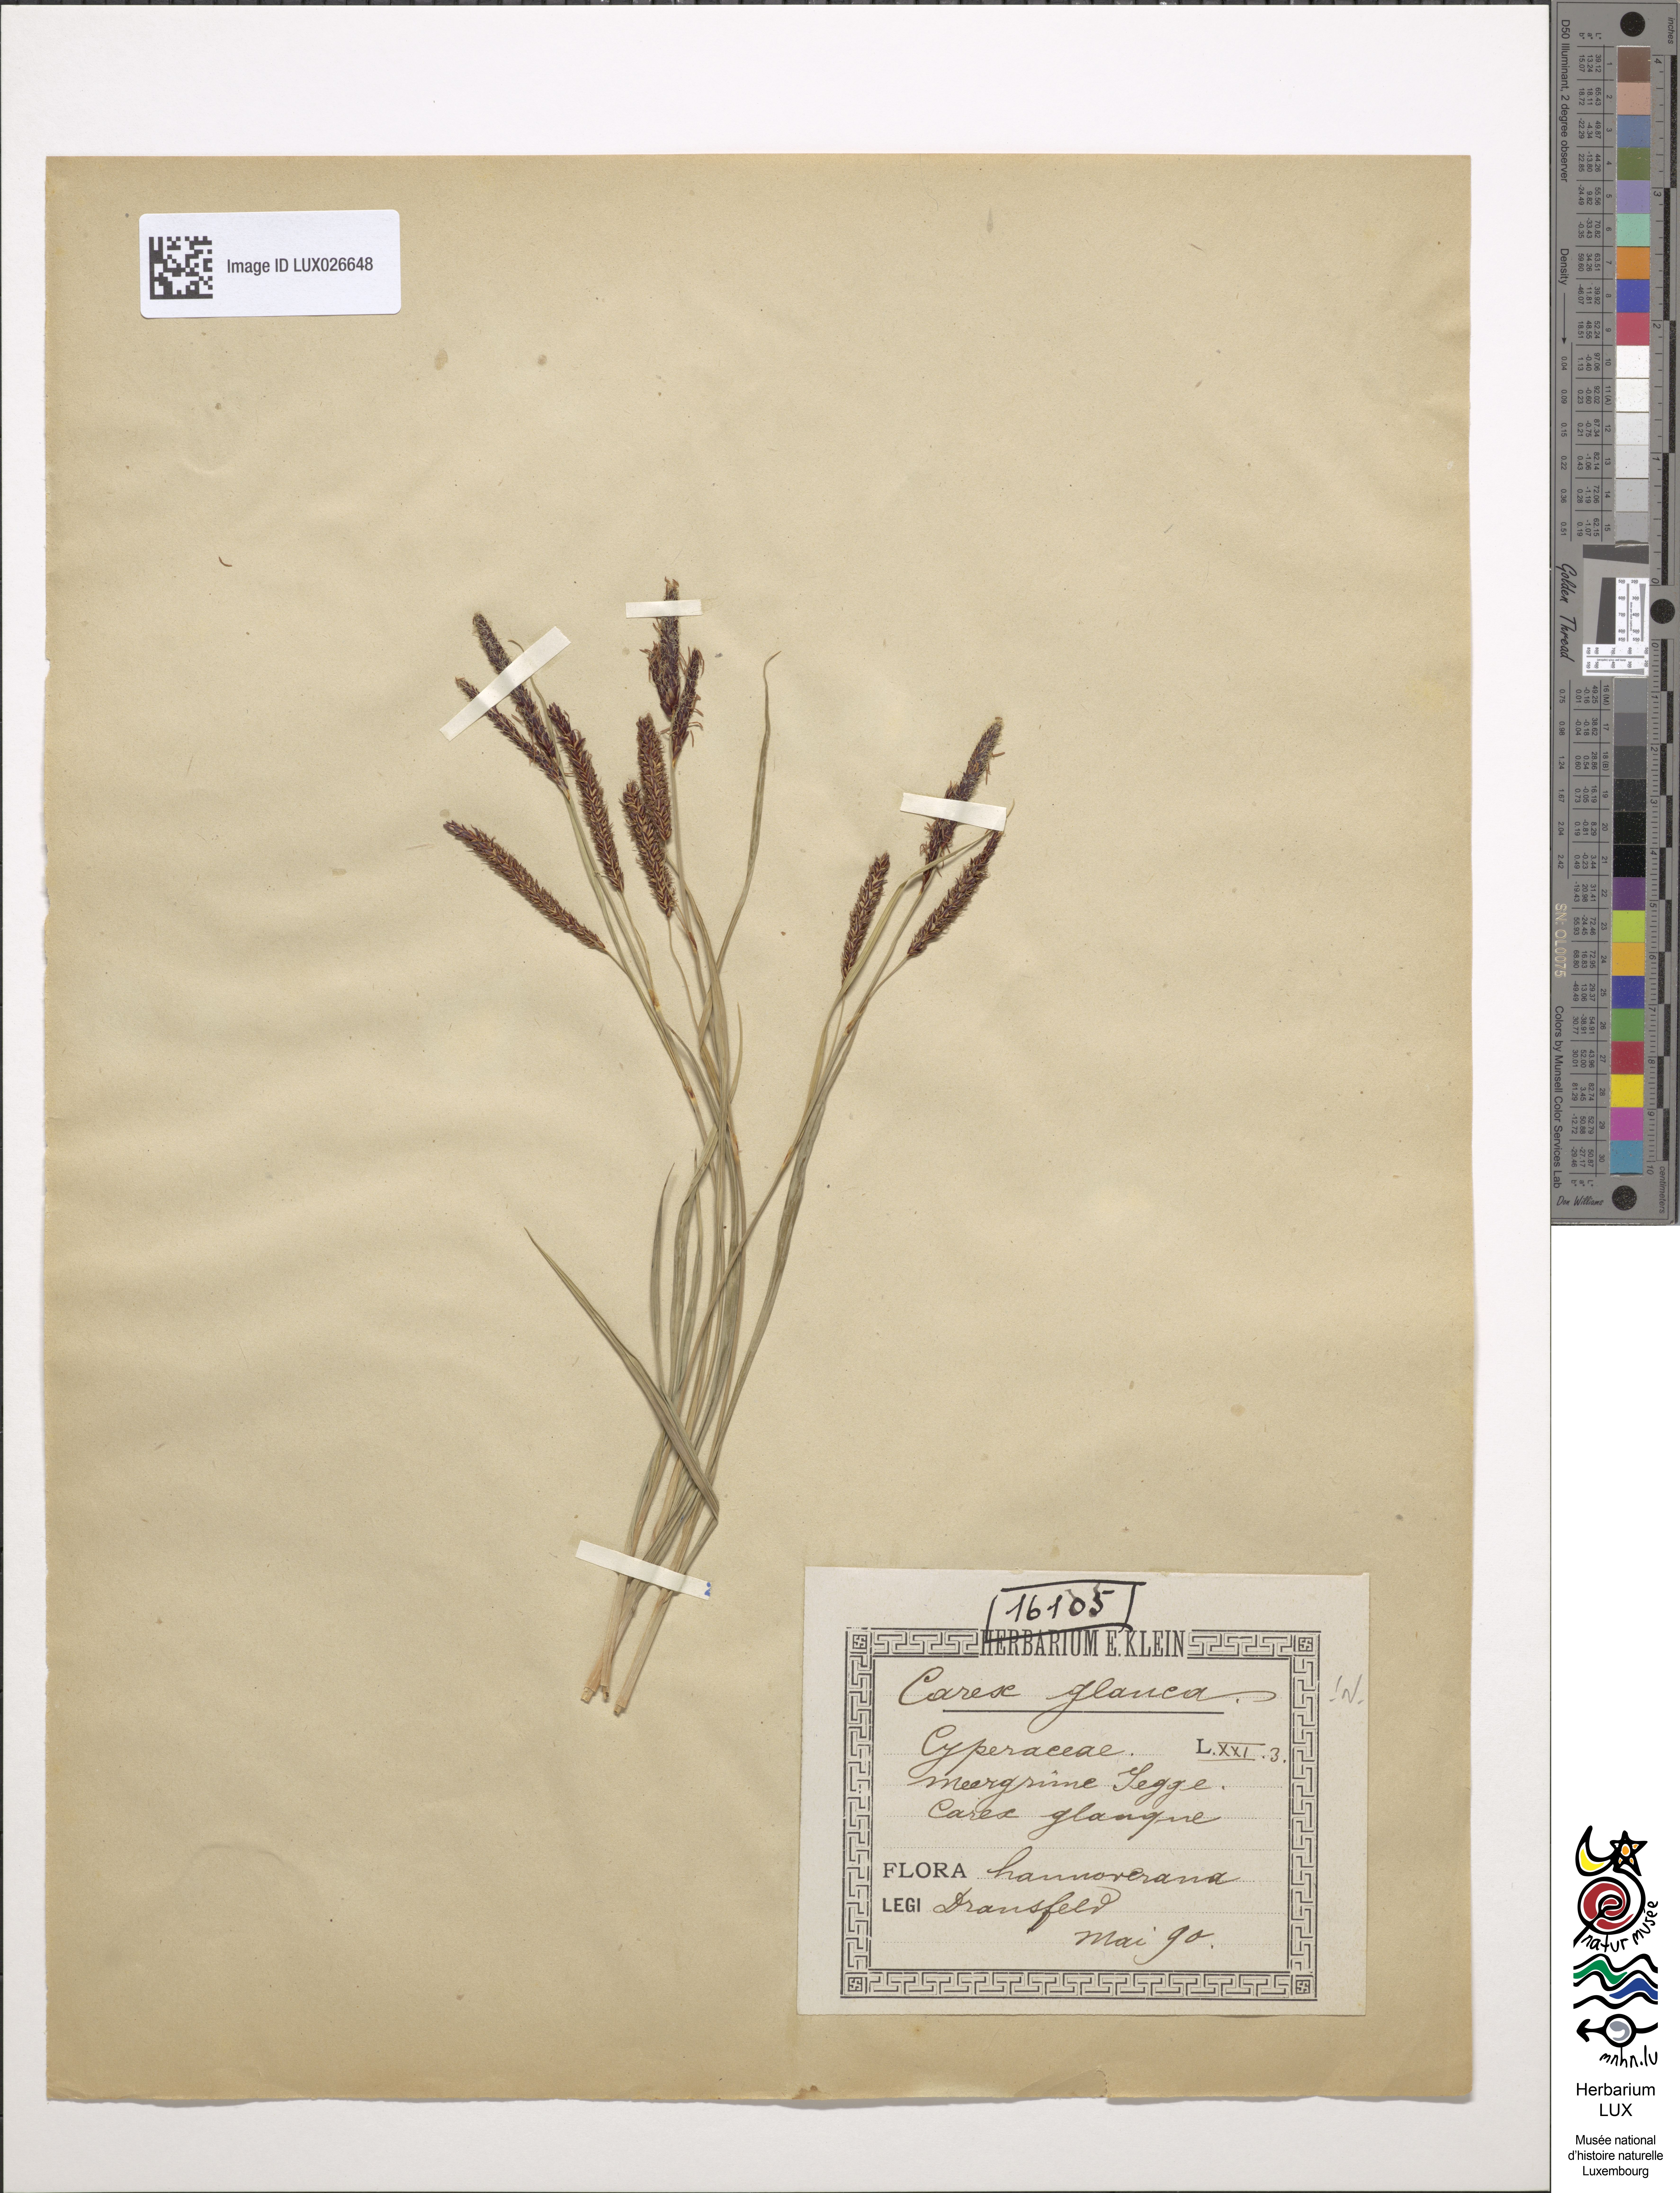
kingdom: Plantae
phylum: Tracheophyta
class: Liliopsida
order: Poales
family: Cyperaceae
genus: Carex
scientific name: Carex flacca
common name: Glaucous sedge
